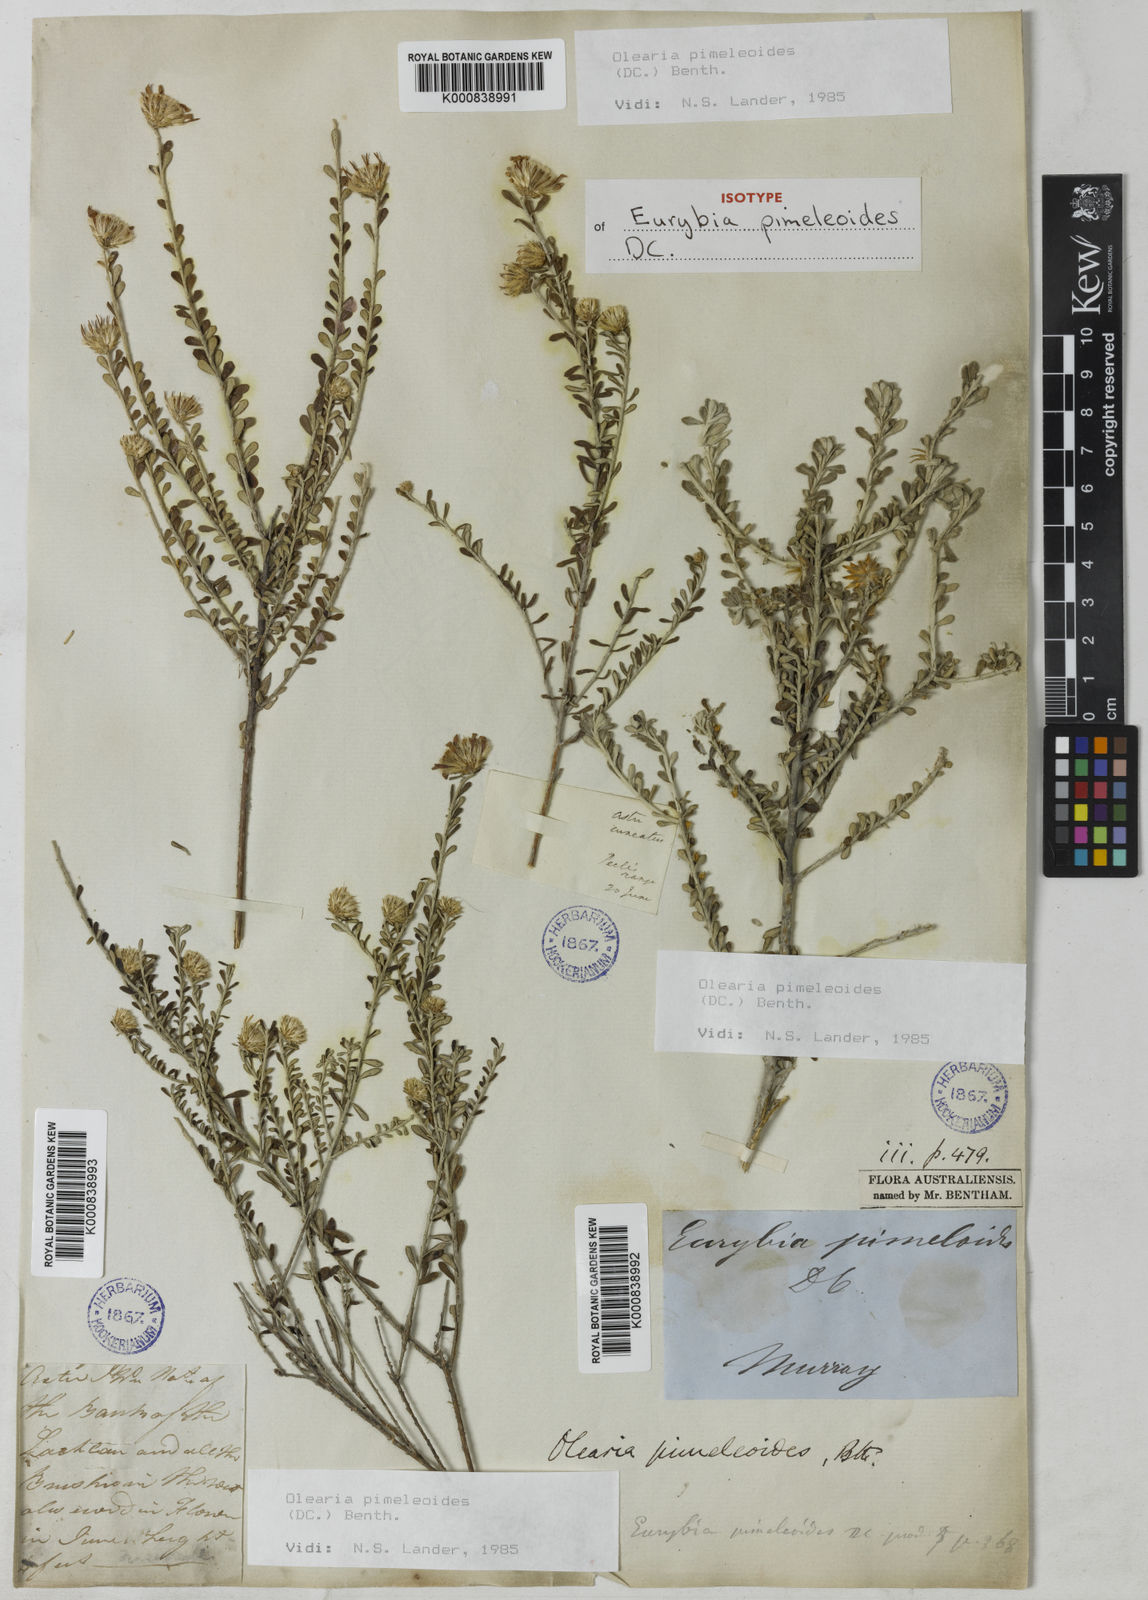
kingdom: Plantae
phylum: Tracheophyta
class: Magnoliopsida
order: Asterales
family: Asteraceae
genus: Olearia
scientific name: Olearia pimeleoides
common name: Showy daisybush
